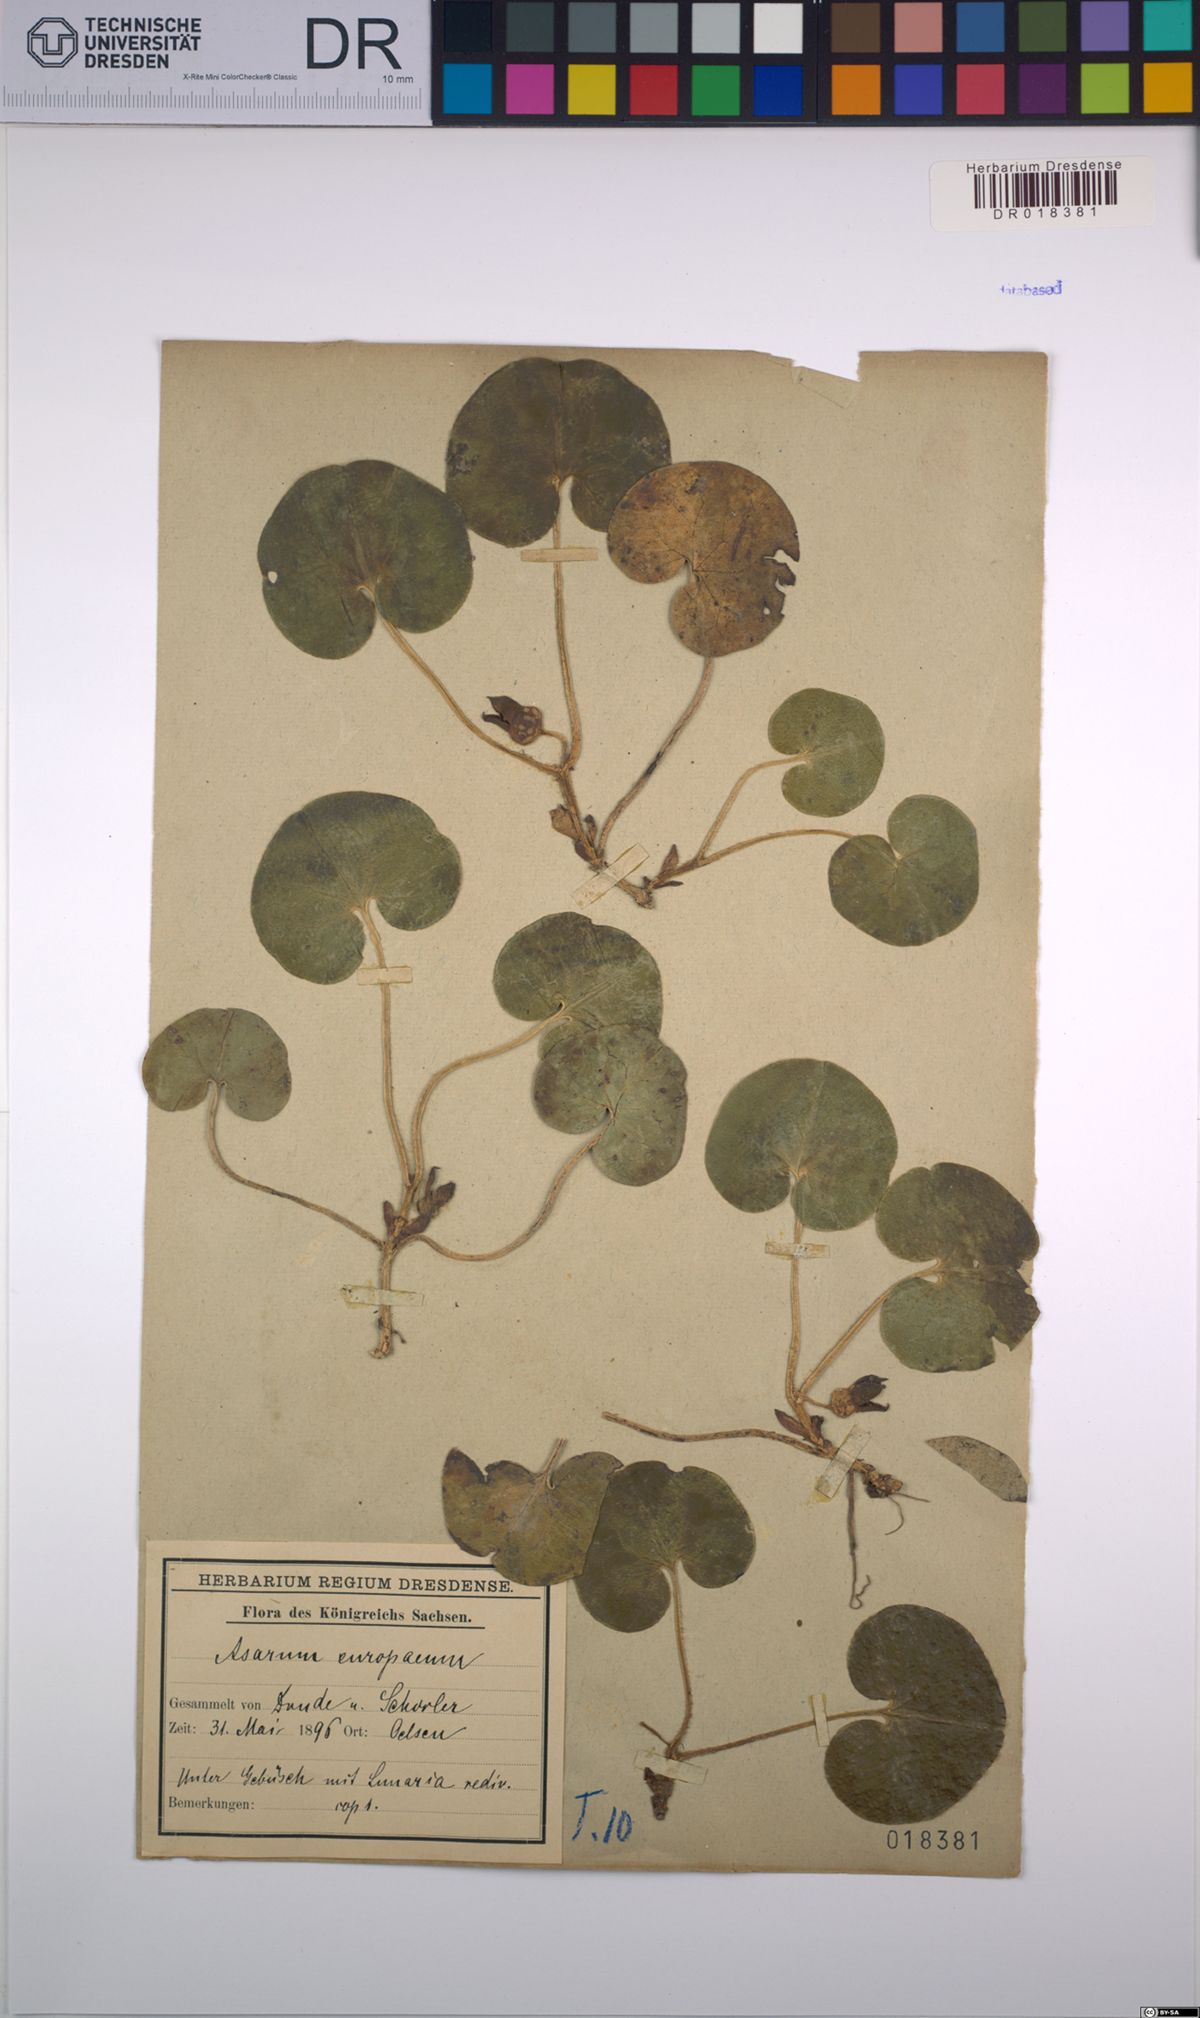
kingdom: Plantae
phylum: Tracheophyta
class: Magnoliopsida
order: Piperales
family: Aristolochiaceae
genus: Asarum
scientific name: Asarum europaeum
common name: Asarabacca
